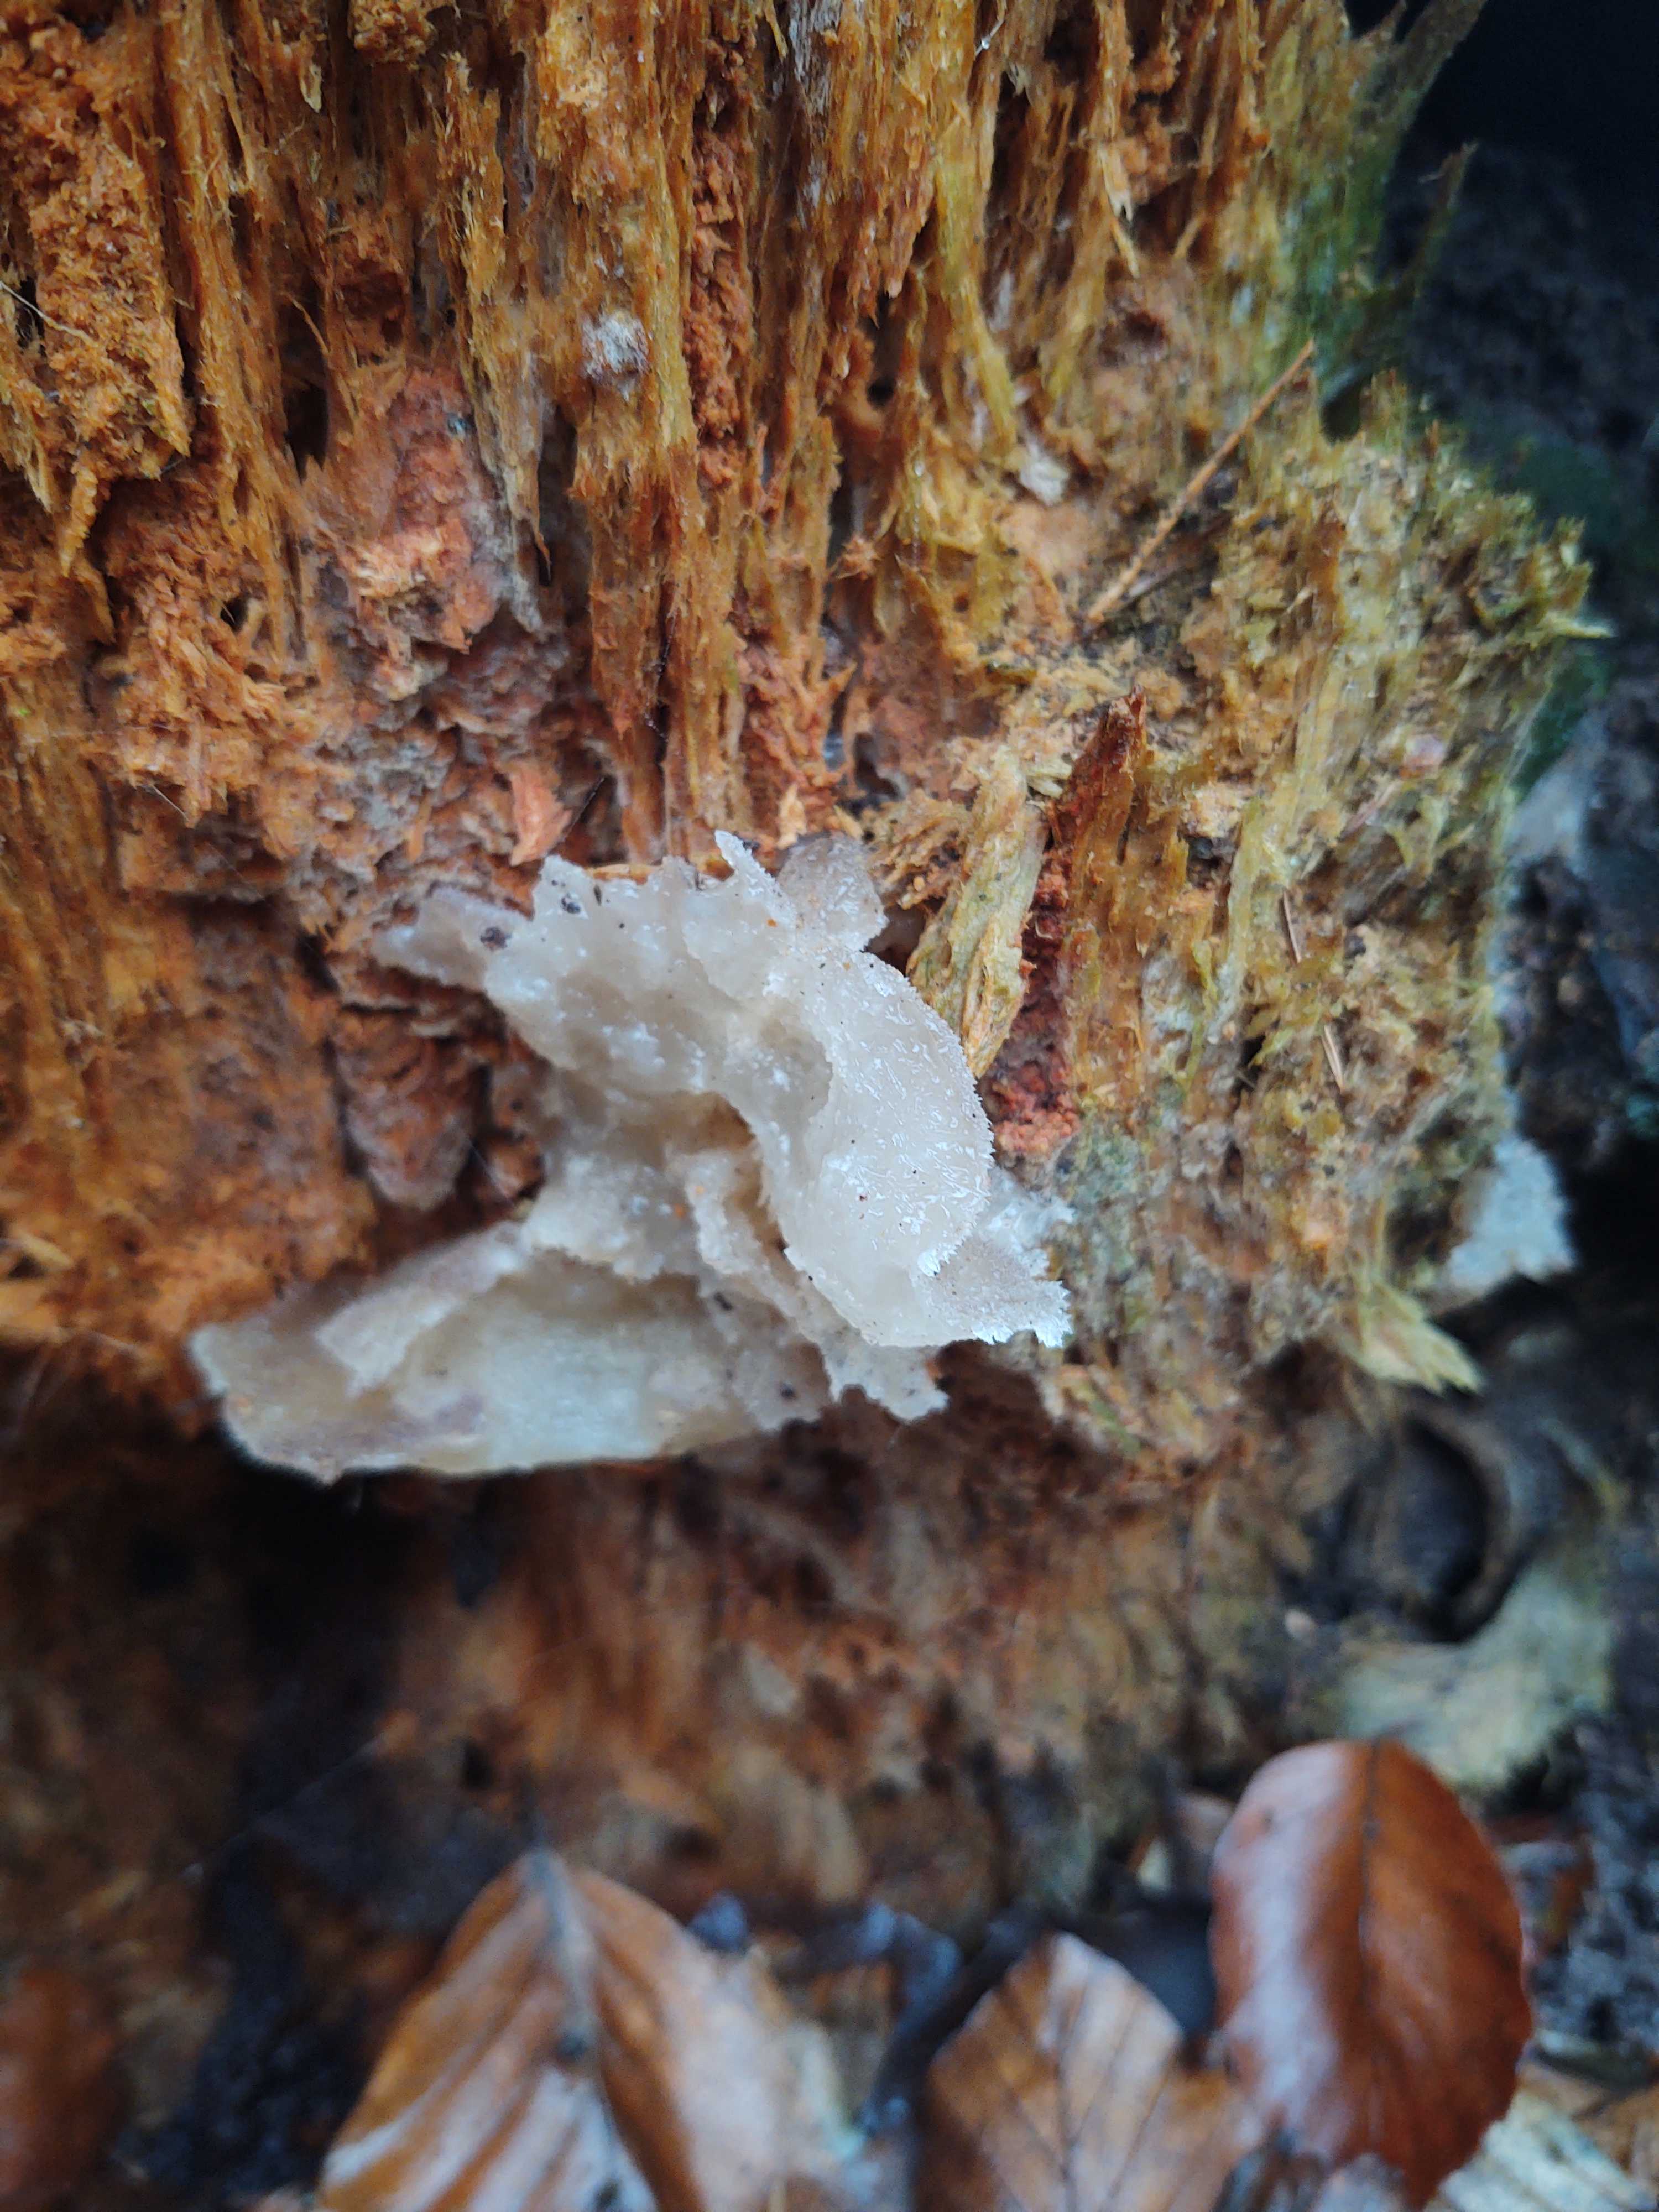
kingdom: Fungi
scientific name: Fungi
